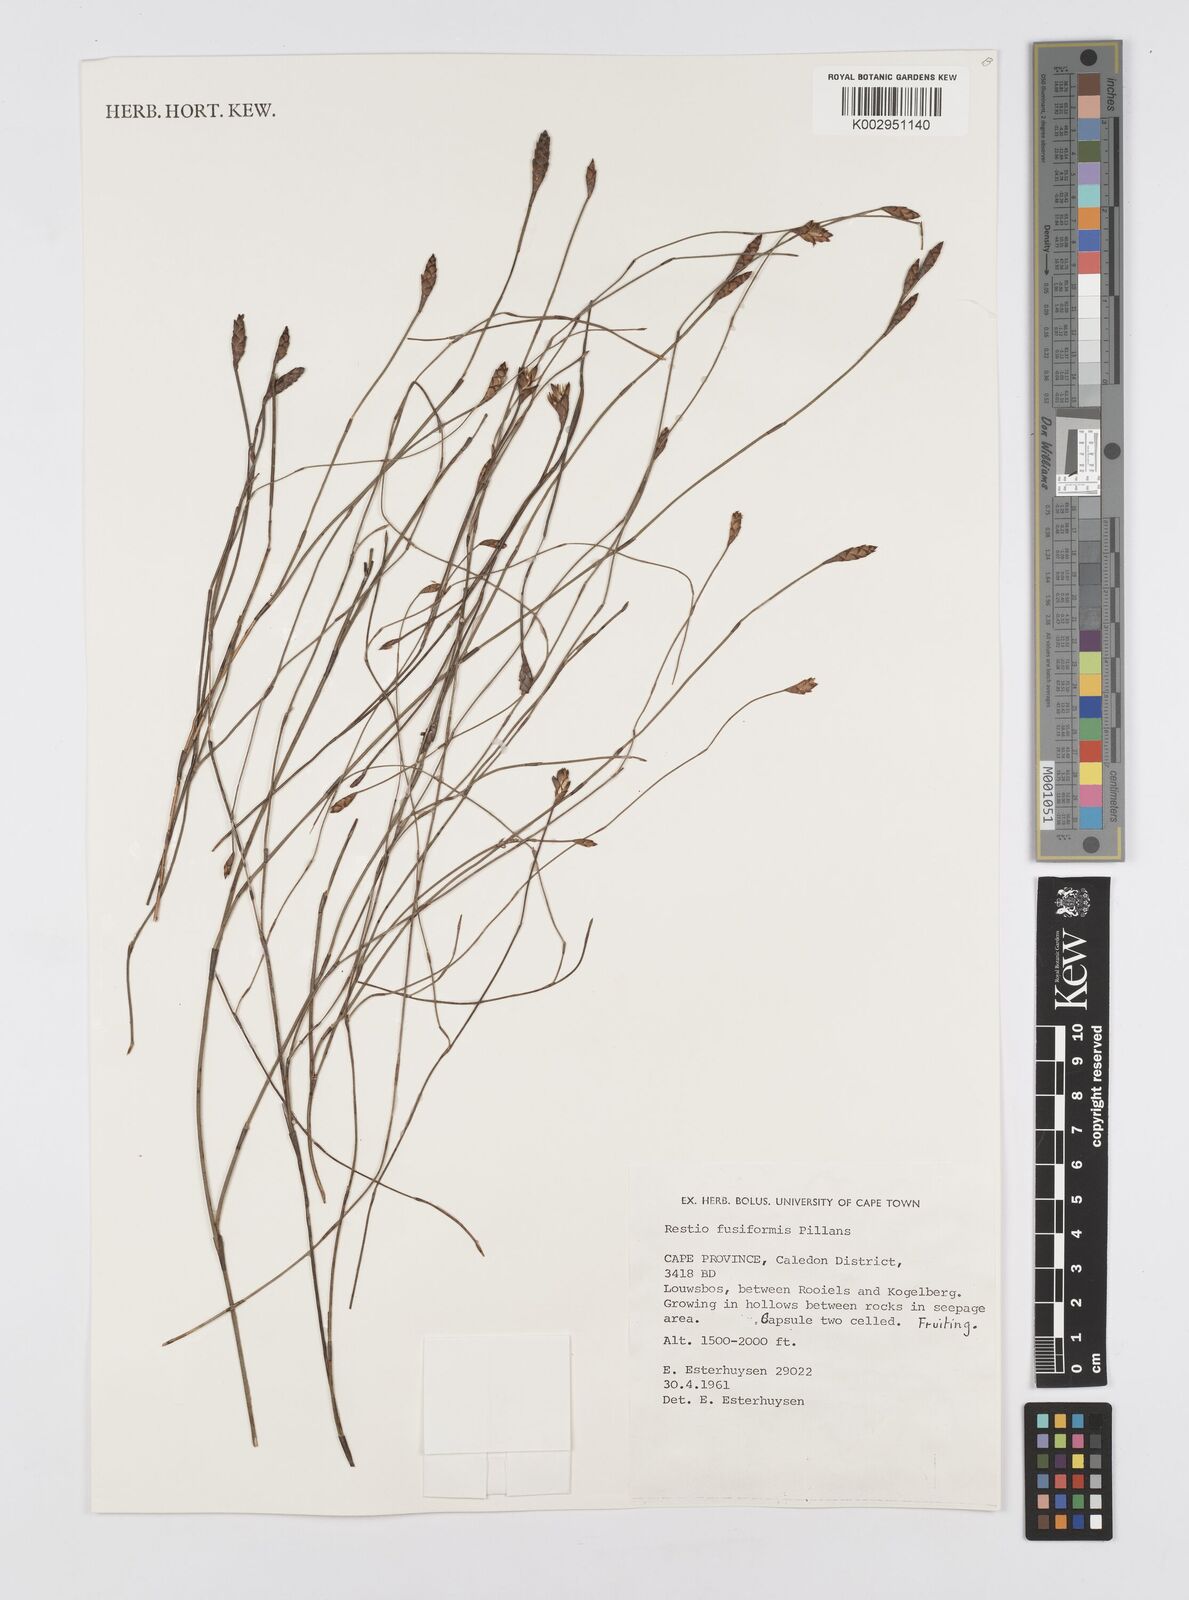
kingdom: Plantae
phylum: Tracheophyta
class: Liliopsida
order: Poales
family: Restionaceae
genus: Restio
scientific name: Restio fusiformis
